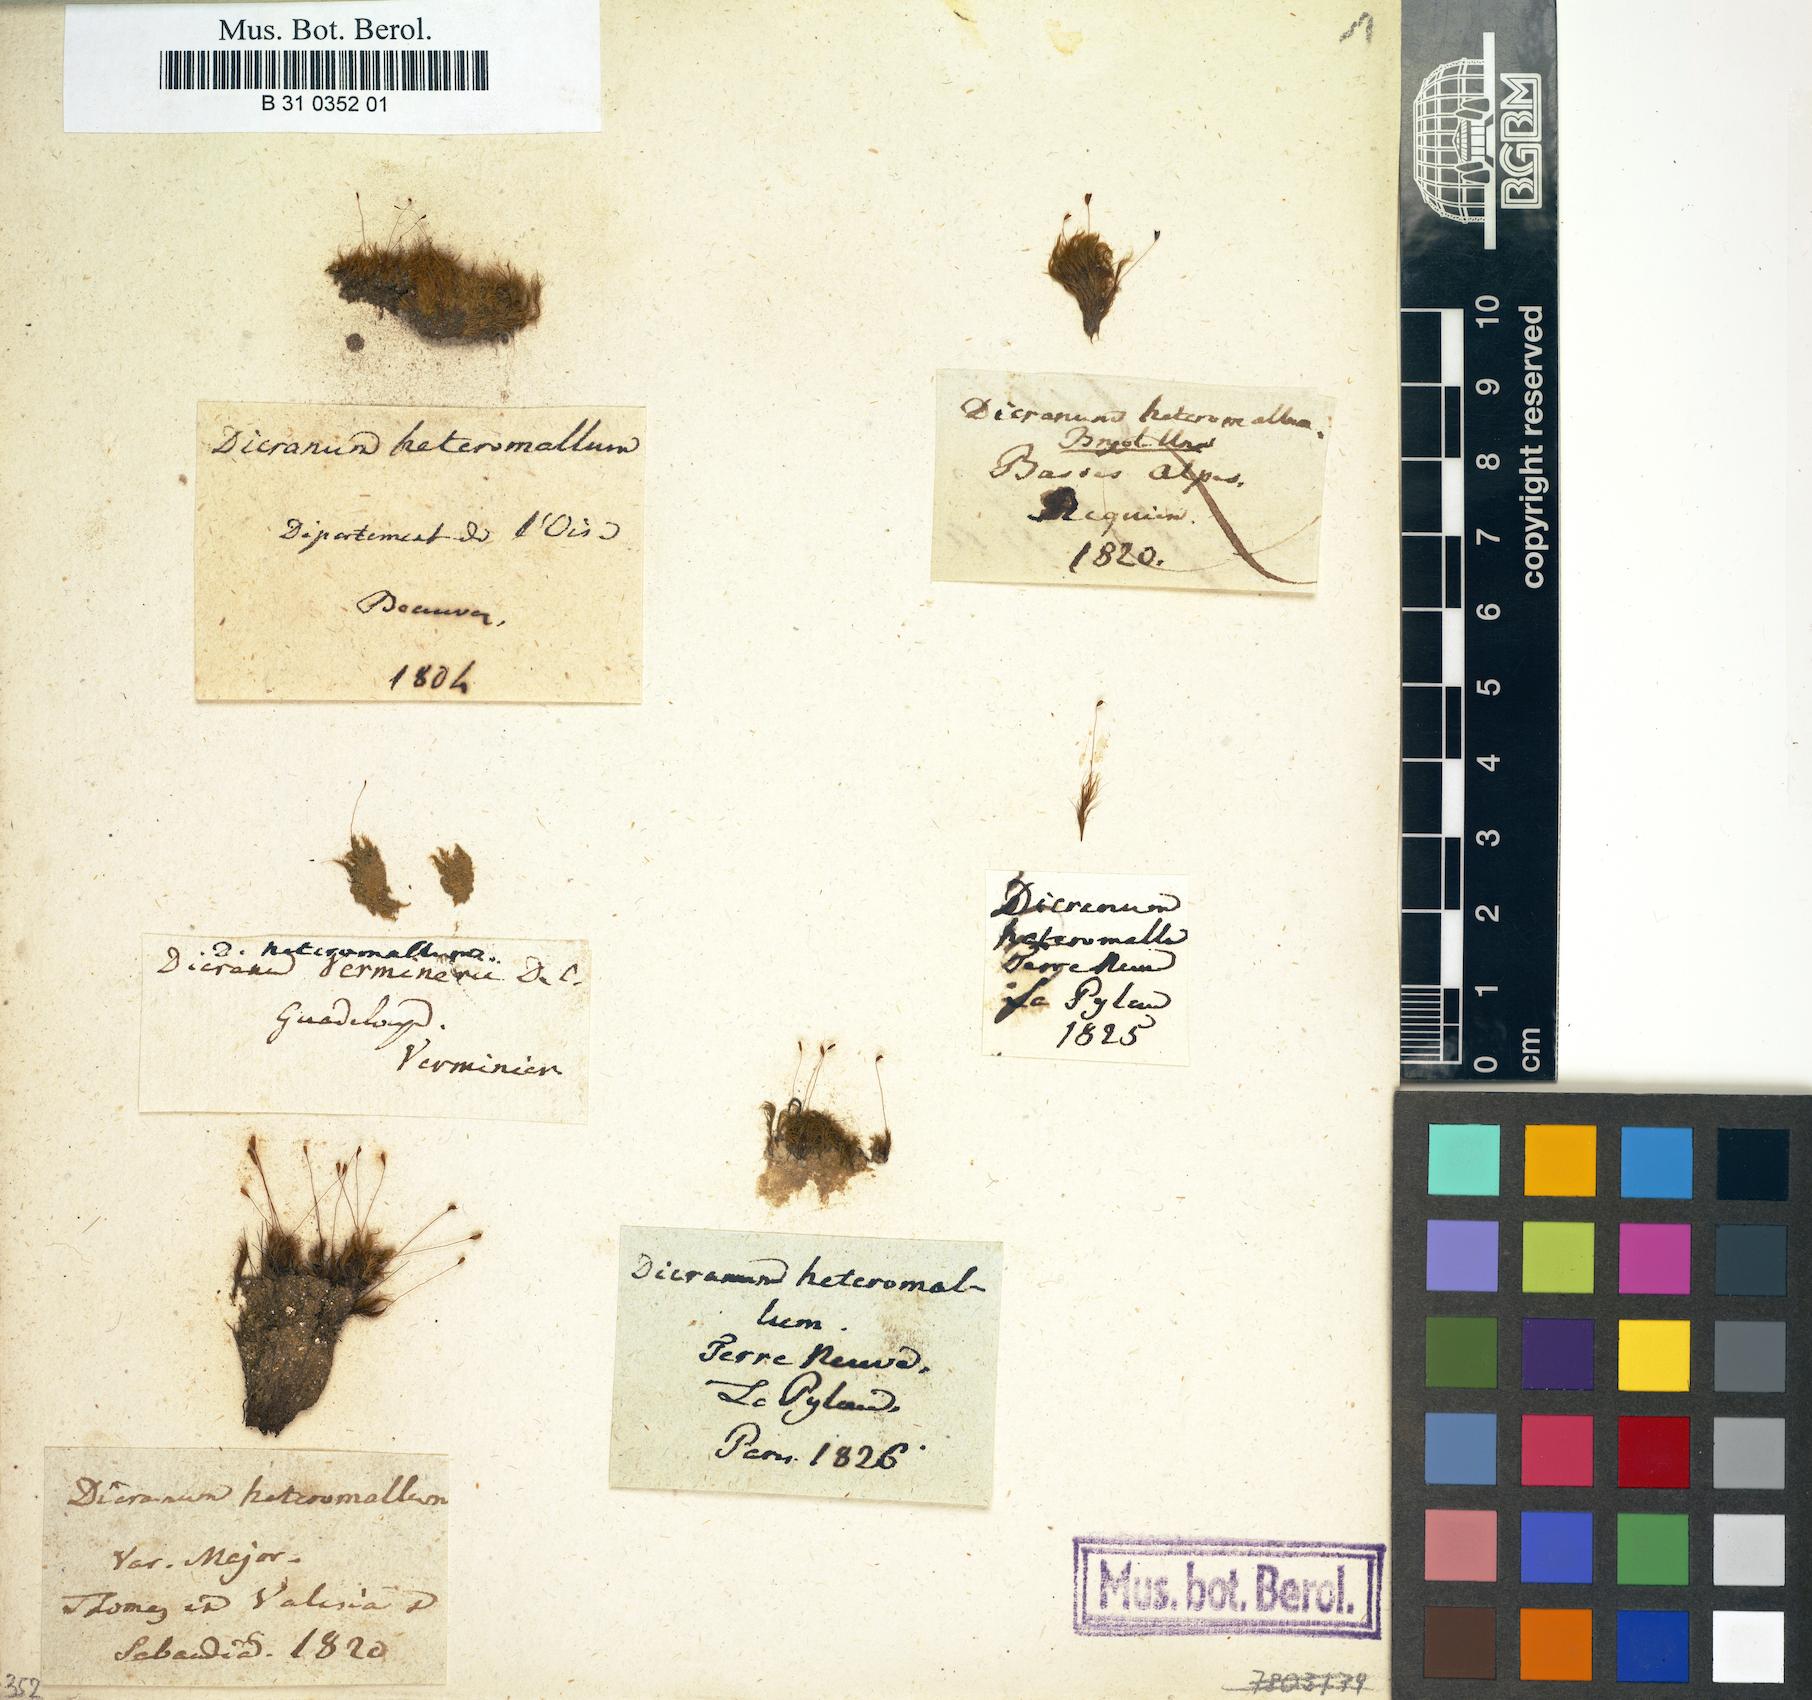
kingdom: Plantae
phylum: Bryophyta
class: Bryopsida
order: Dicranales
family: Dicranellaceae
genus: Dicranella
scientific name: Dicranella heteromalla
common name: Silky forklet moss
